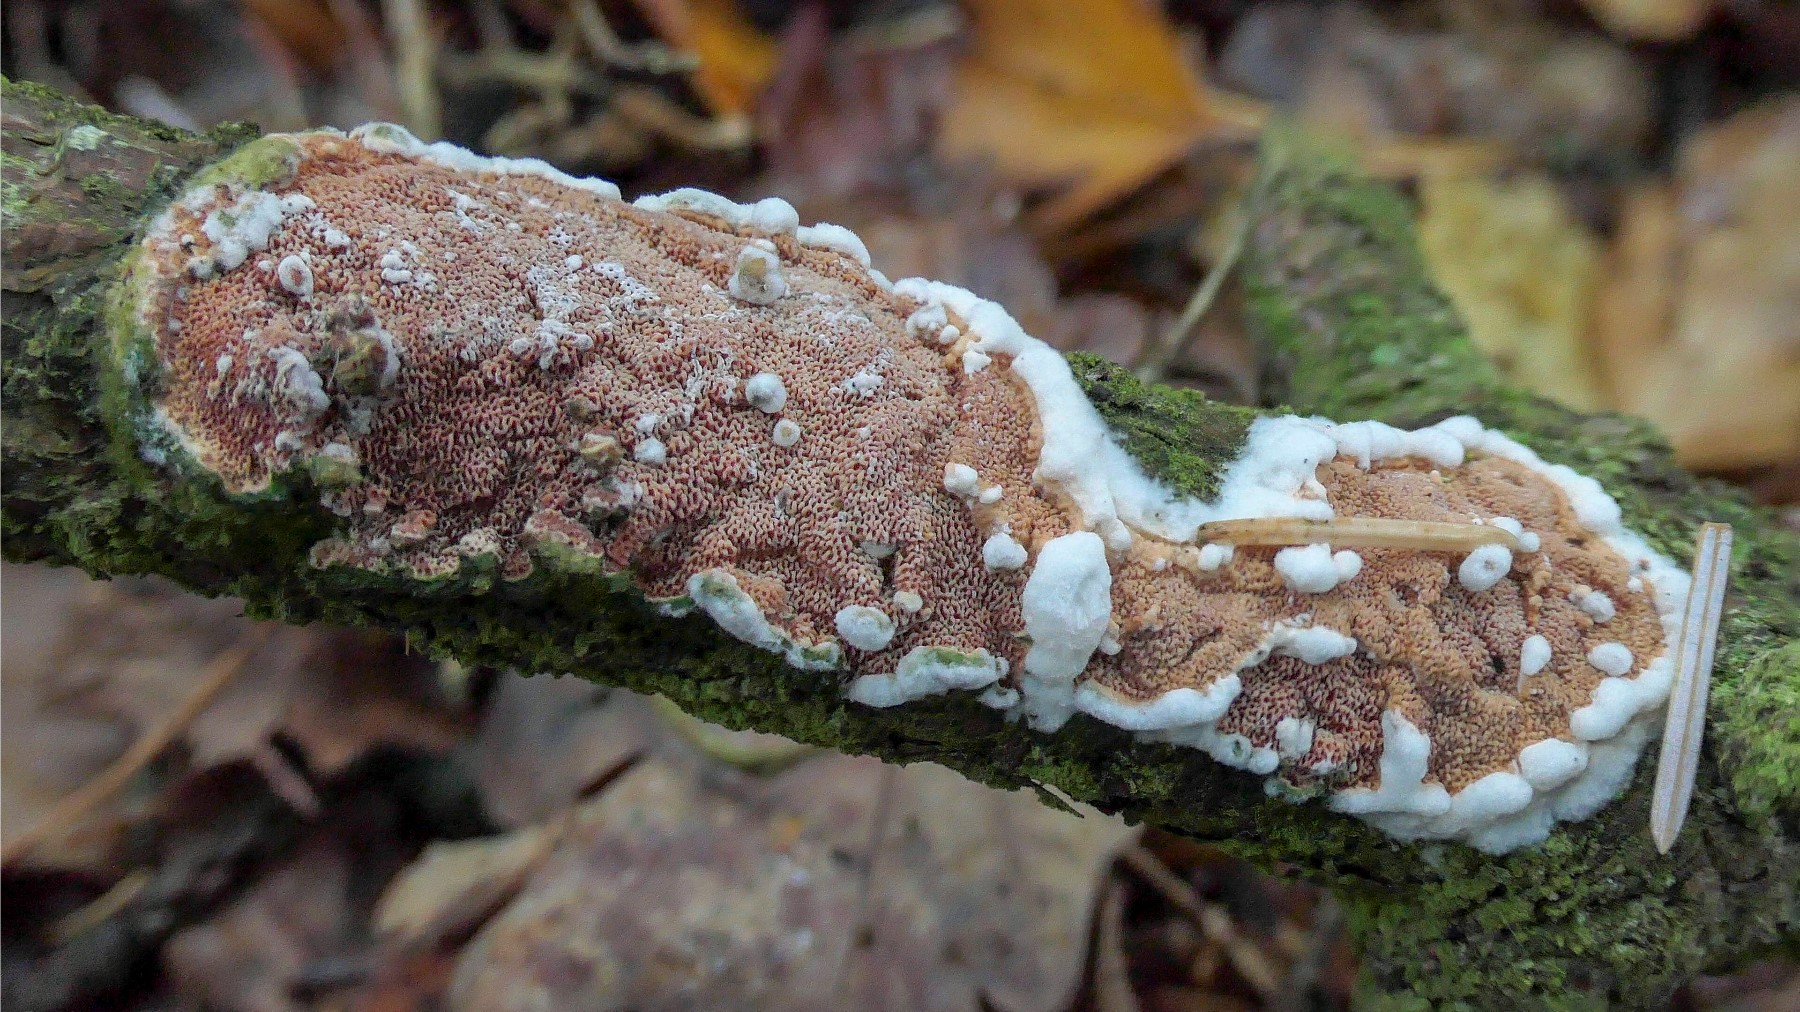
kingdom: Fungi
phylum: Basidiomycota
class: Agaricomycetes
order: Polyporales
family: Irpicaceae
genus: Meruliopsis
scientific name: Meruliopsis taxicola
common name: purpurbrun foldporesvamp
